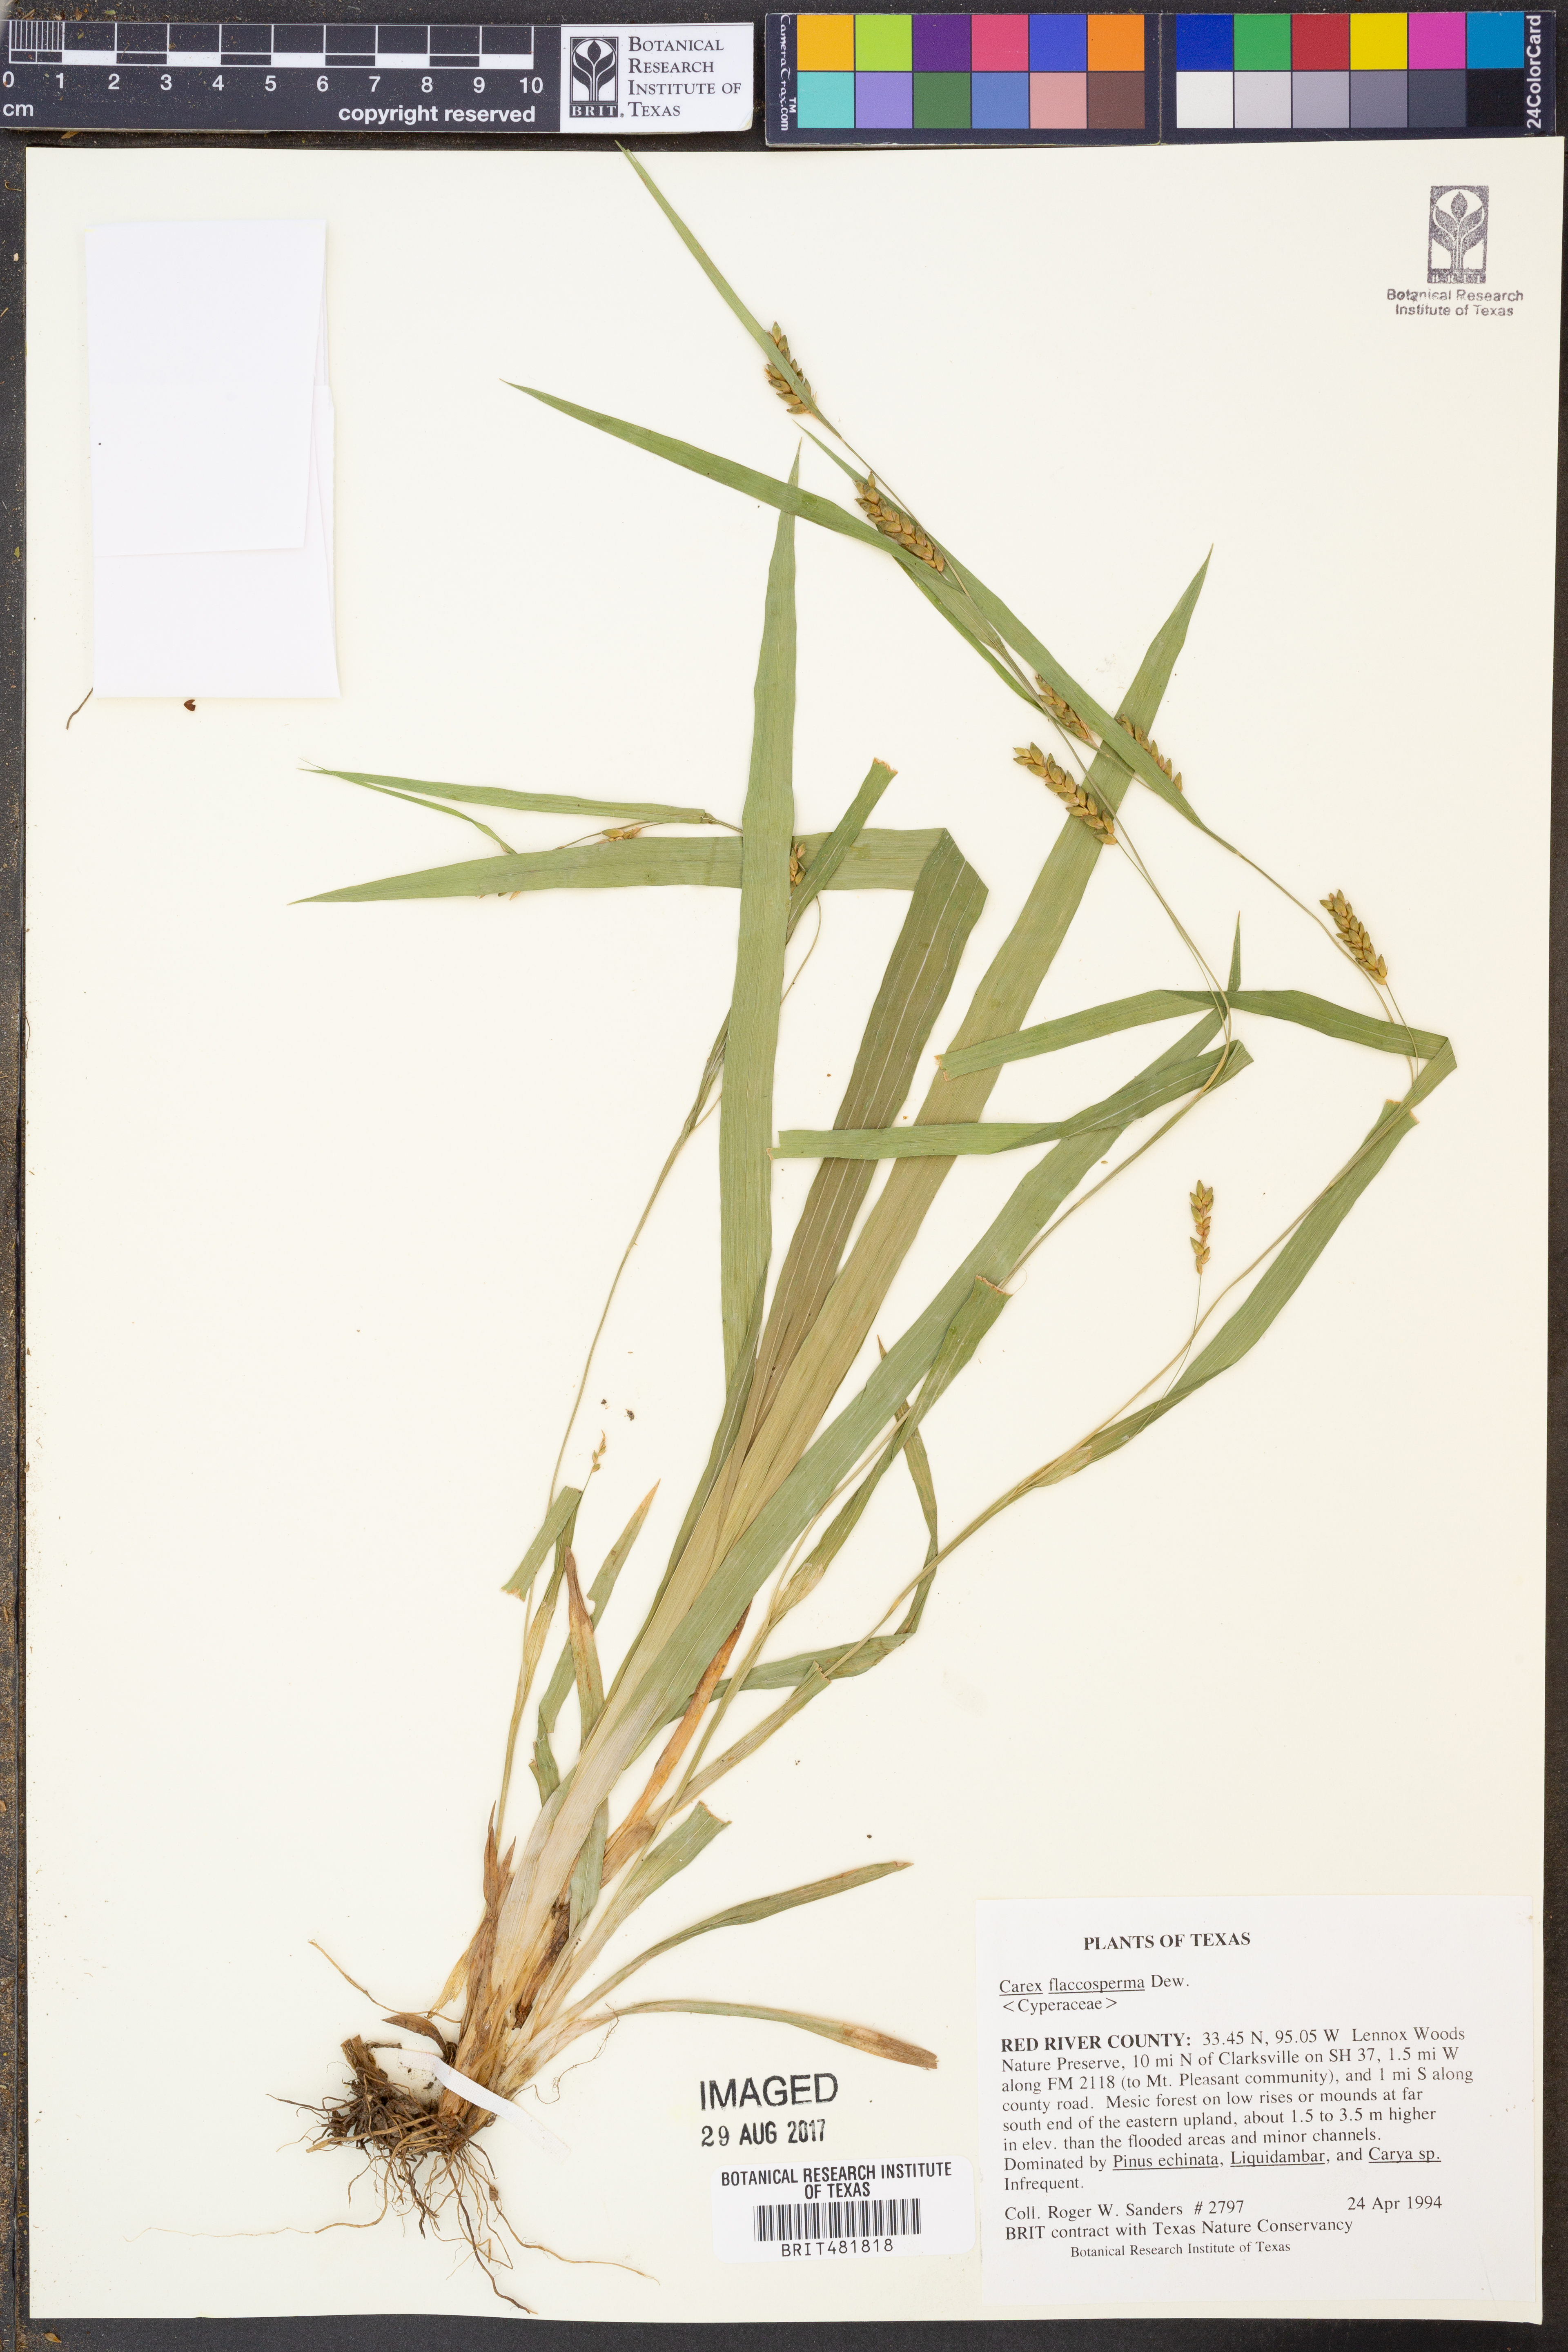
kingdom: Plantae
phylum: Tracheophyta
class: Liliopsida
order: Poales
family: Cyperaceae
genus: Carex
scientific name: Carex flaccosperma
